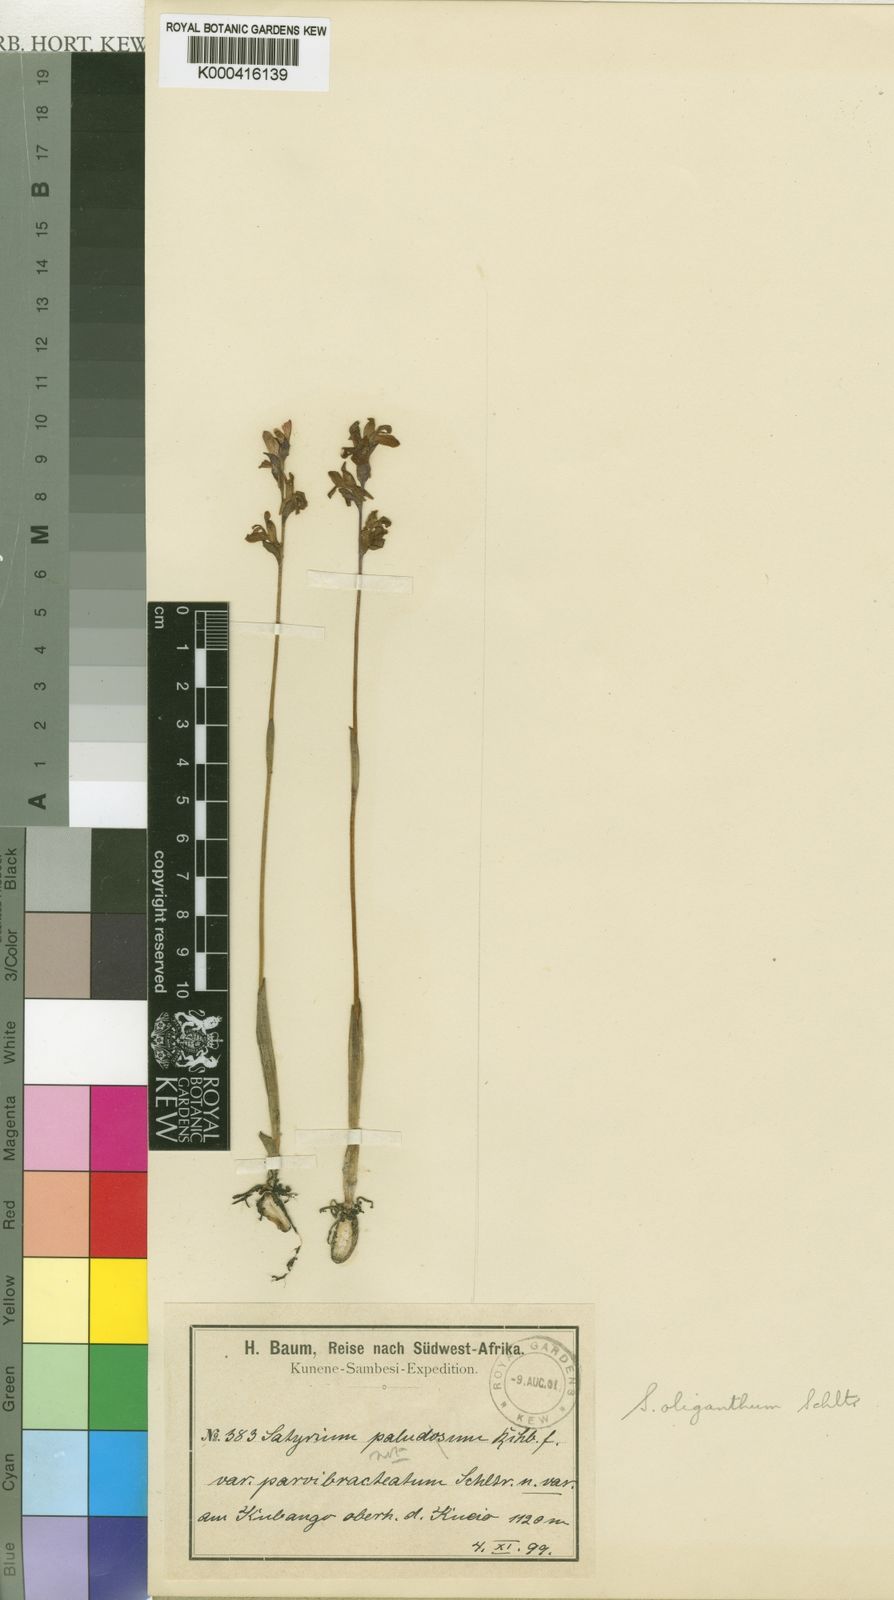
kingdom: Plantae
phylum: Tracheophyta
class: Liliopsida
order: Asparagales
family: Orchidaceae
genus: Satyrium
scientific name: Satyrium oliganthum
